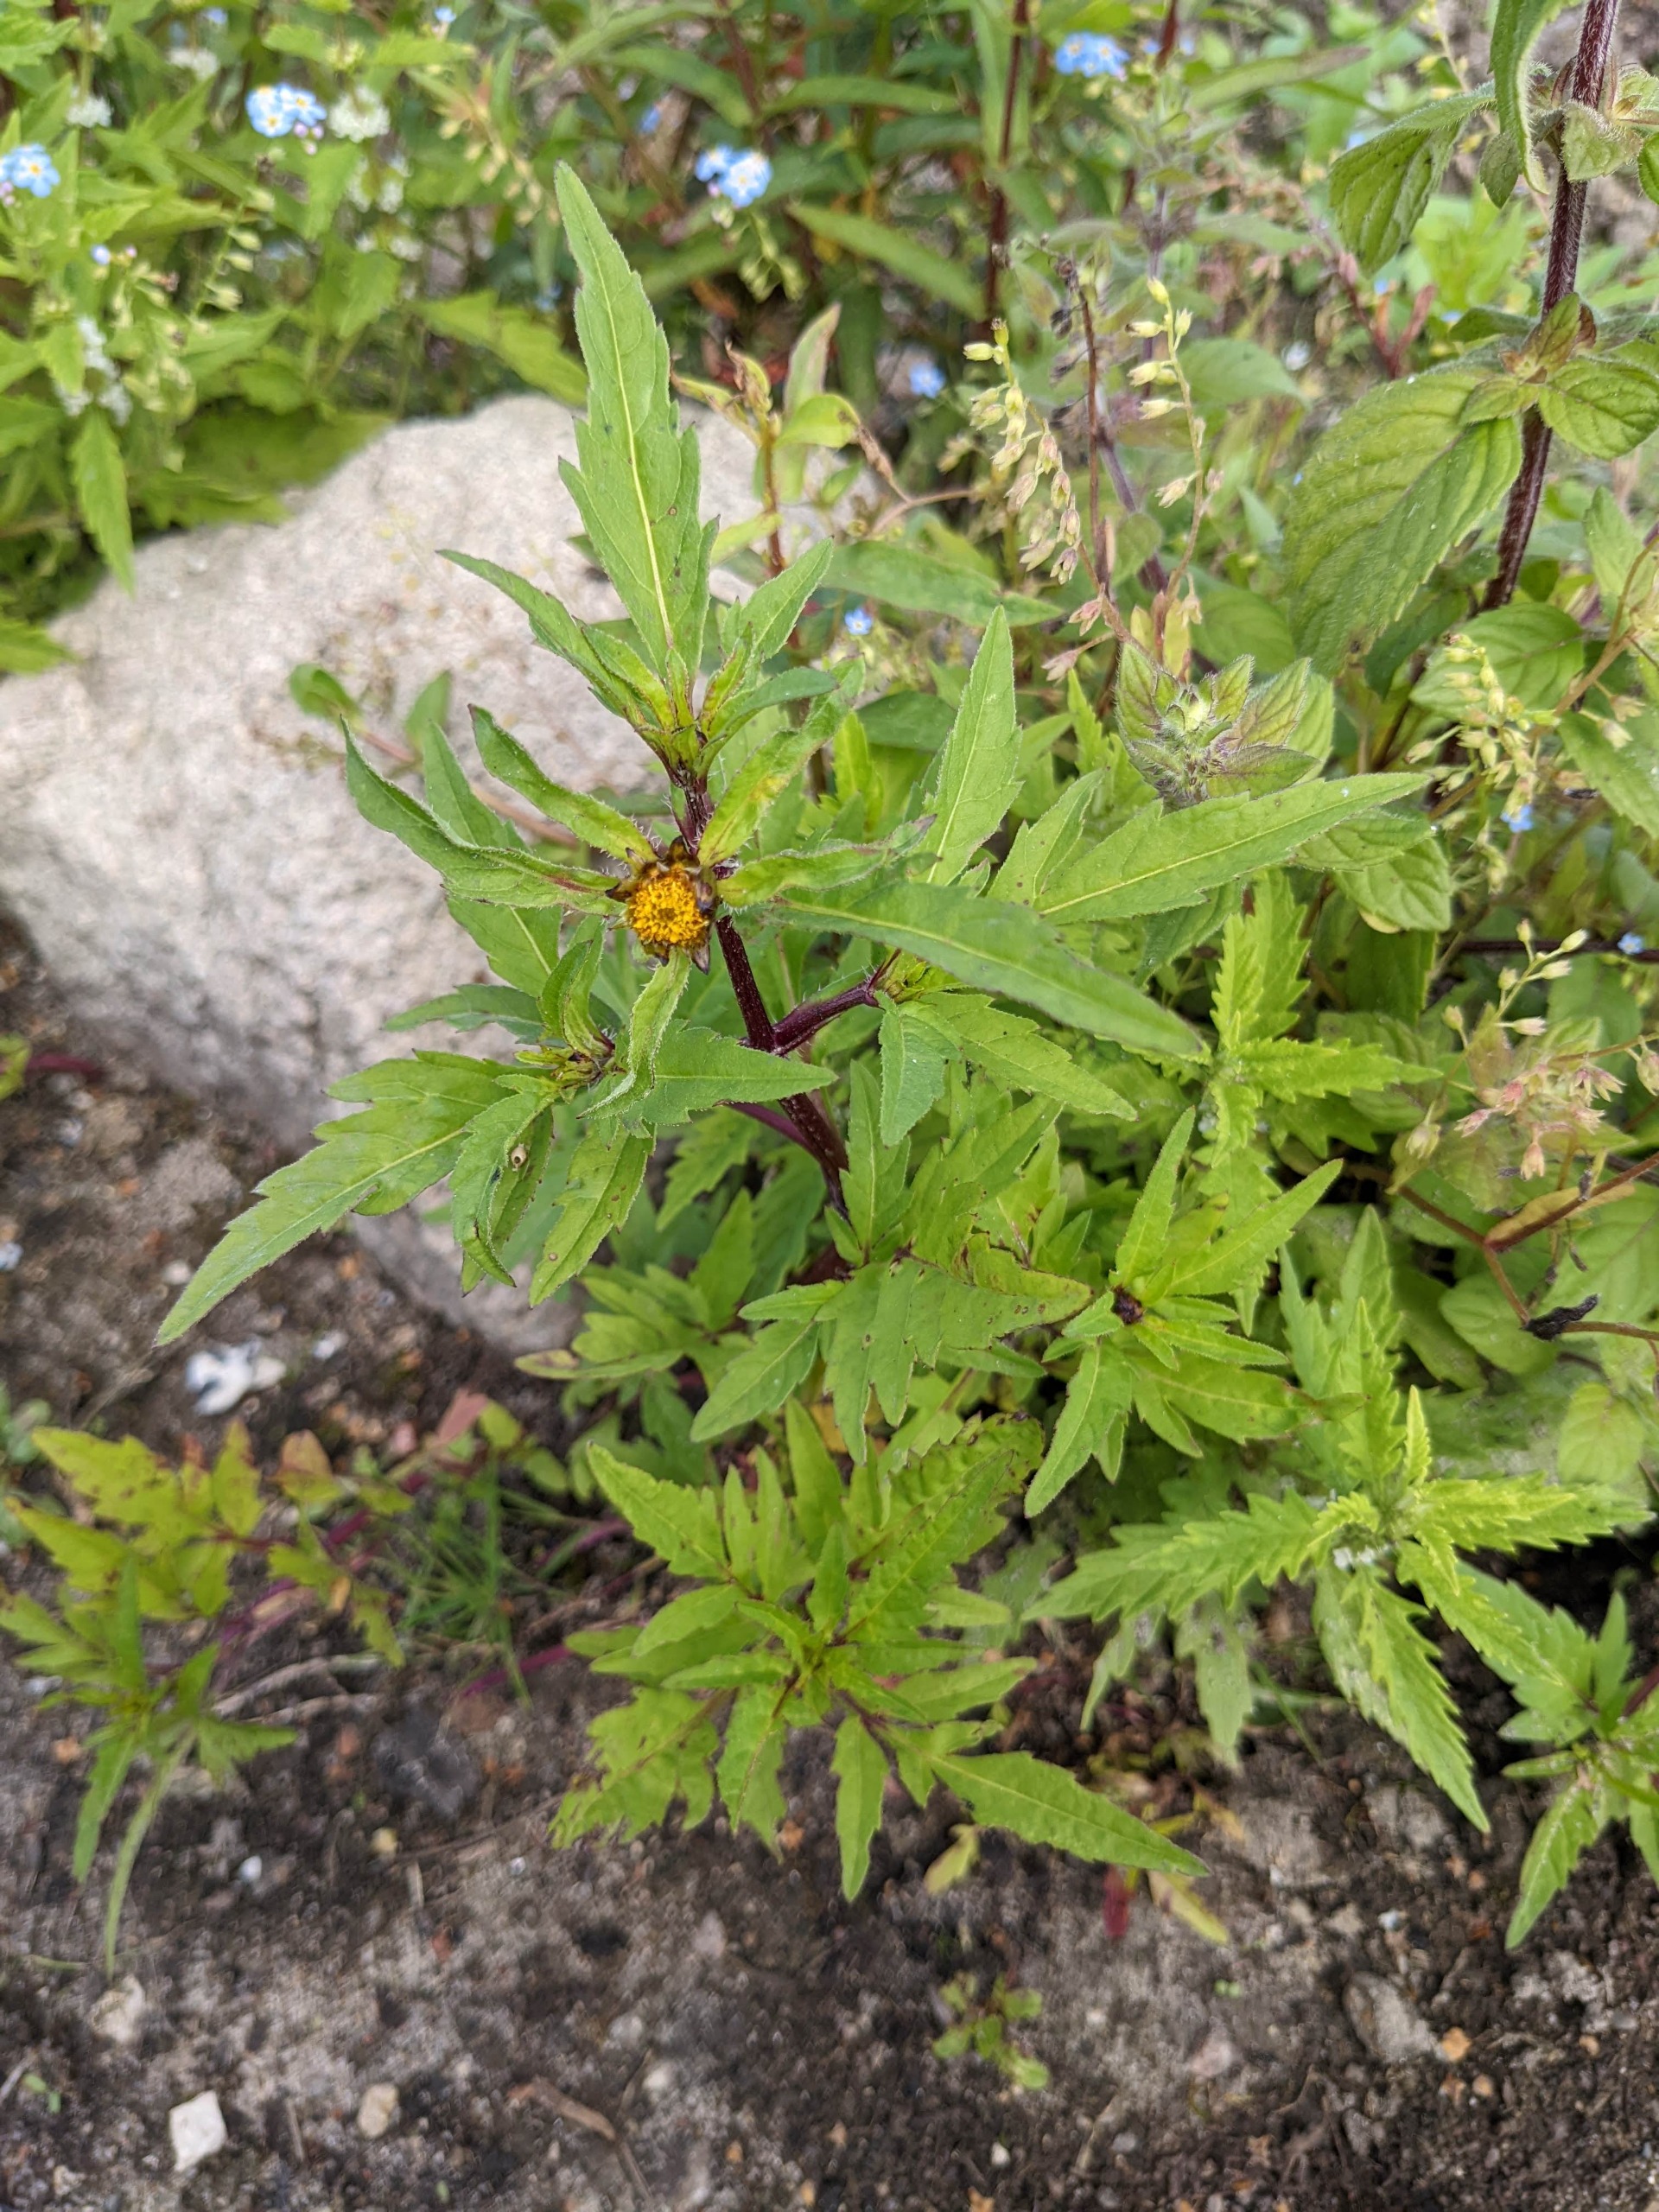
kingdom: Plantae
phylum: Tracheophyta
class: Magnoliopsida
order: Asterales
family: Asteraceae
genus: Bidens
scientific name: Bidens tripartita
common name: Fliget brøndsel
